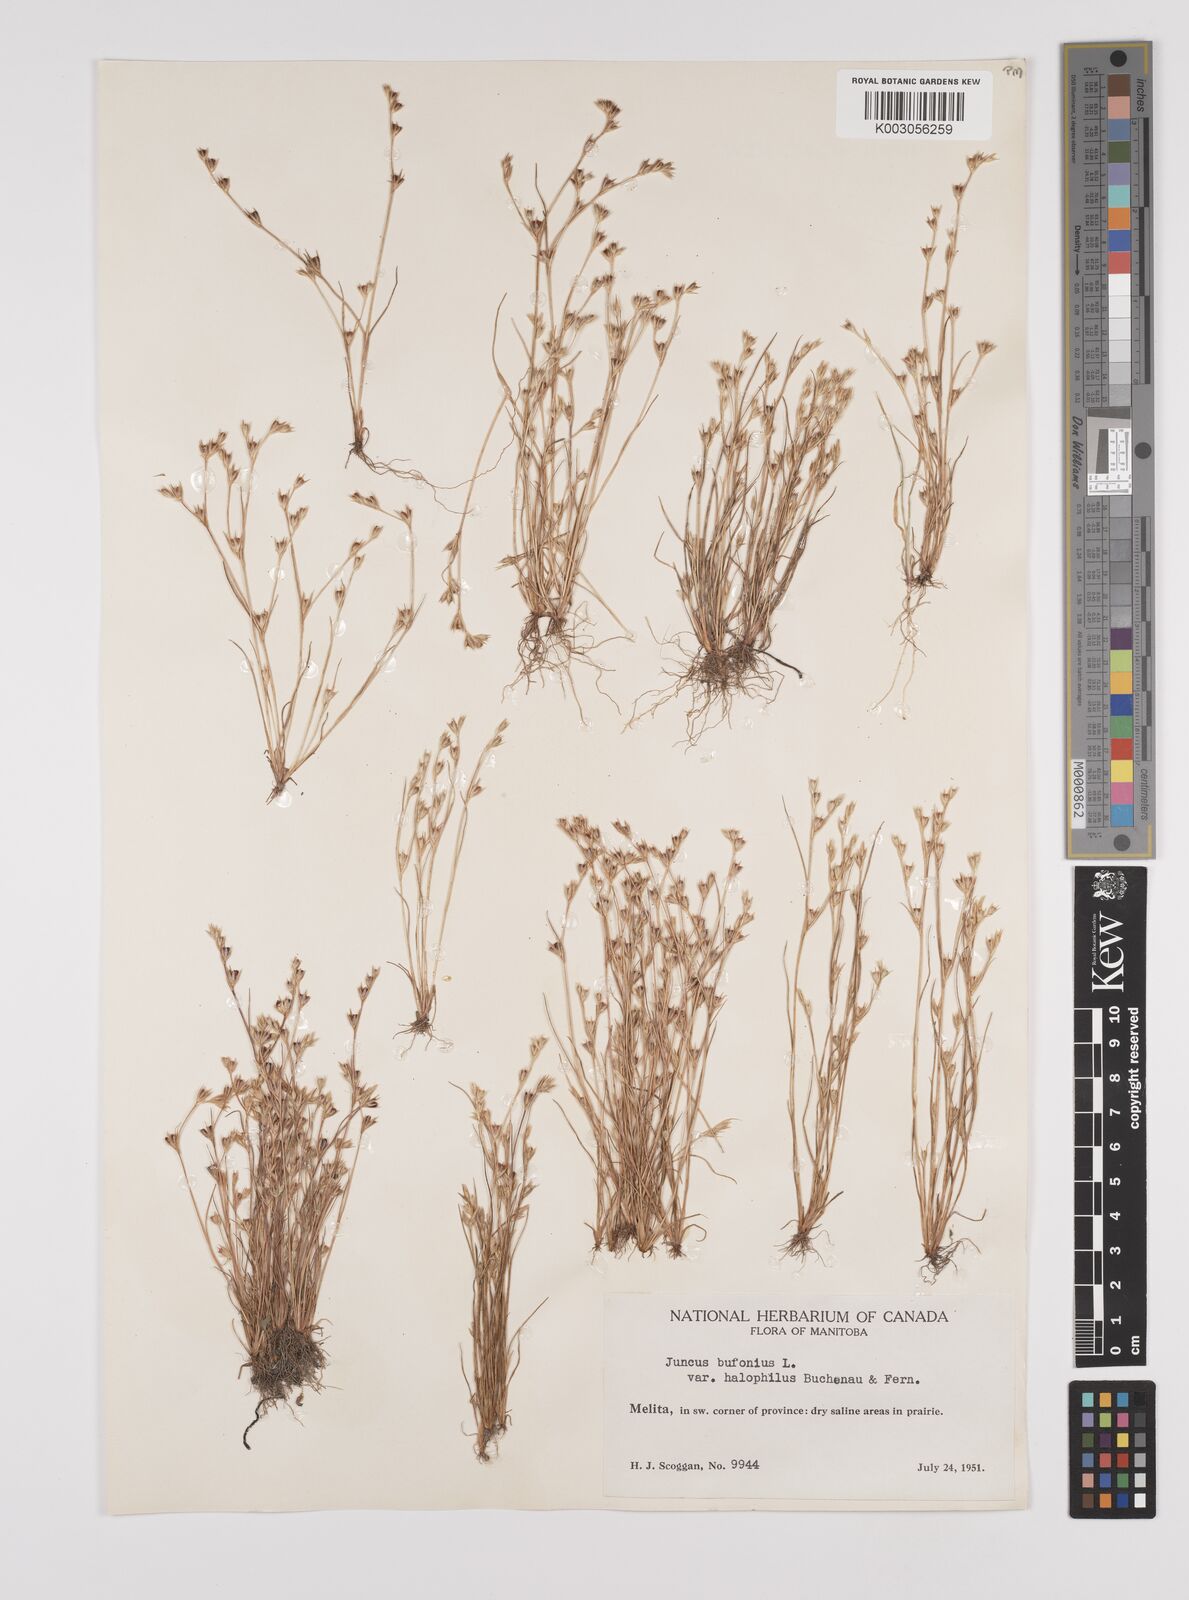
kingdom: Plantae
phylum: Tracheophyta
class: Liliopsida
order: Poales
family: Juncaceae
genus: Juncus
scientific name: Juncus ranarius
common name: Frog rush
